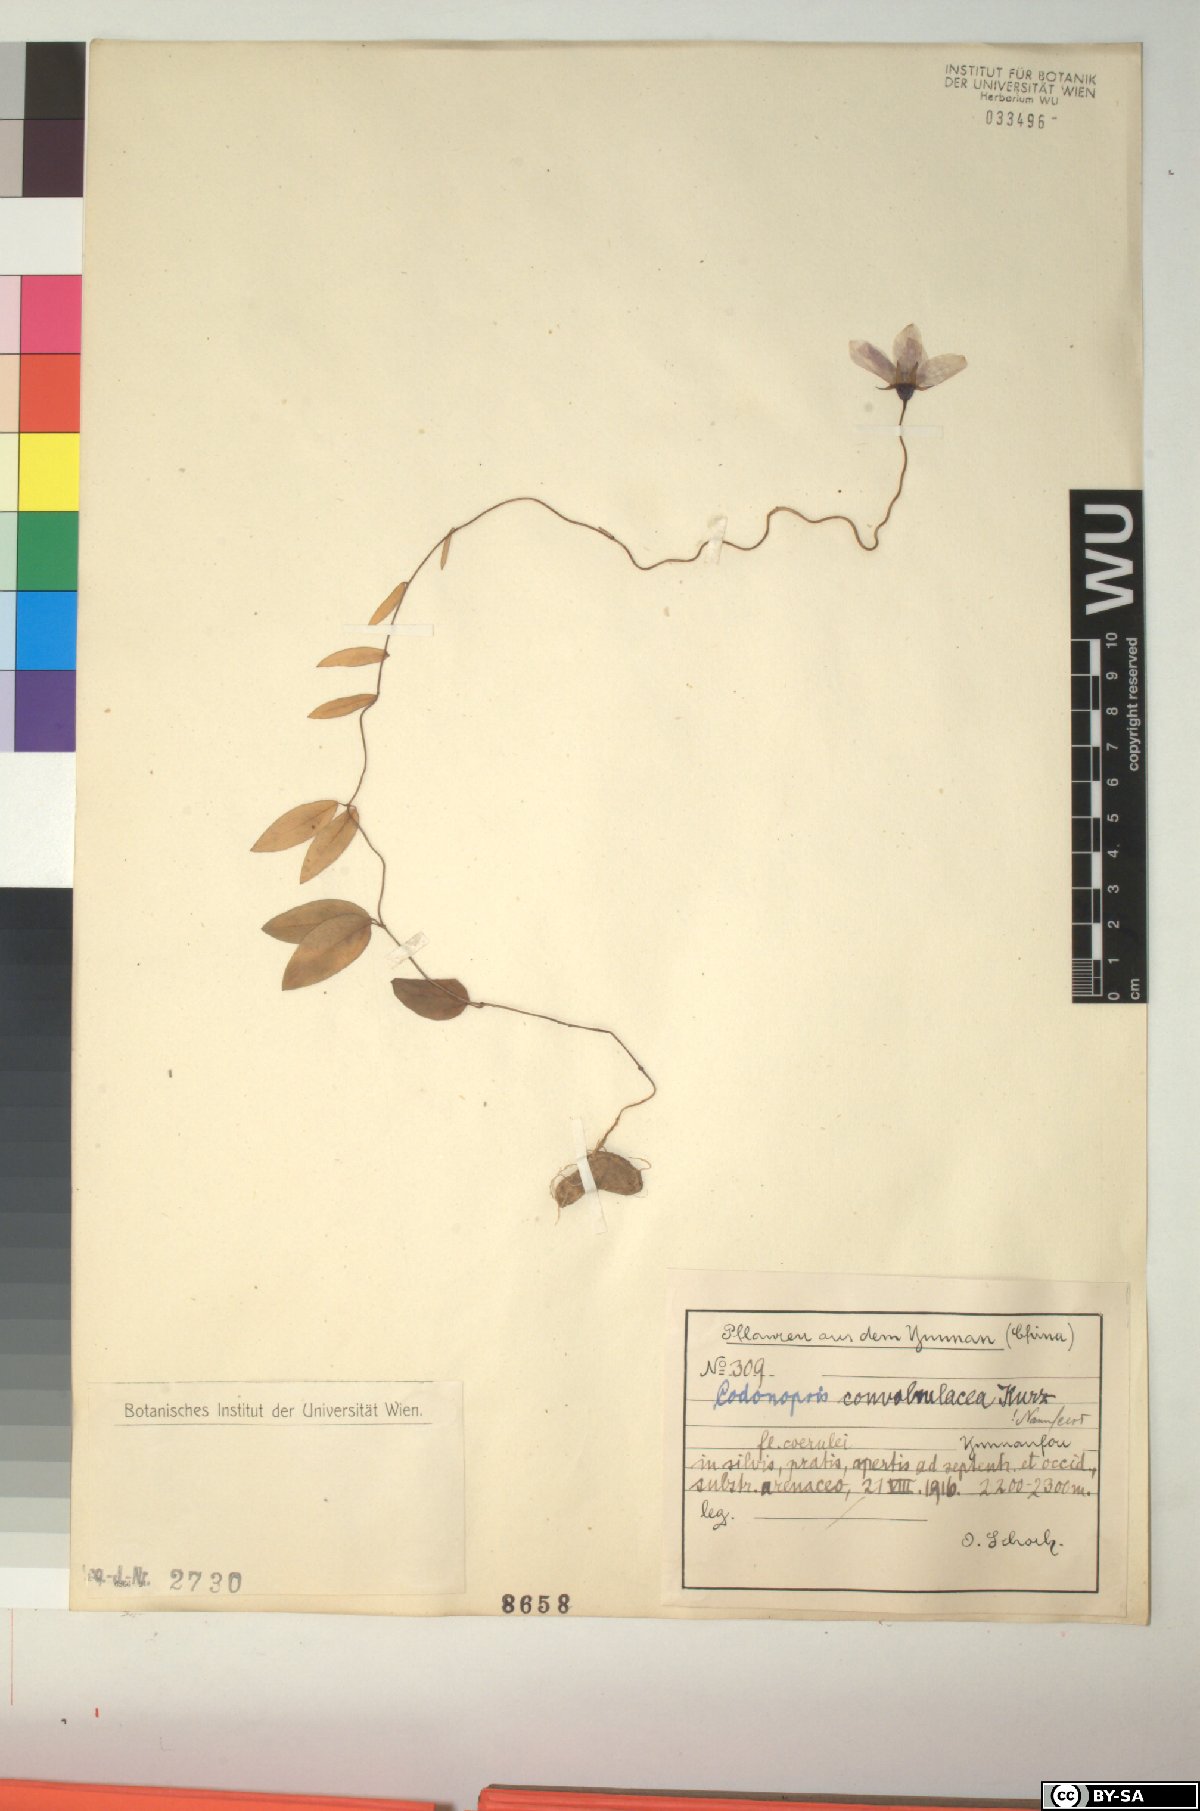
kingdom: Plantae
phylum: Tracheophyta
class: Magnoliopsida
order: Asterales
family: Campanulaceae
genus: Pseudocodon
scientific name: Pseudocodon convolvulaceus
